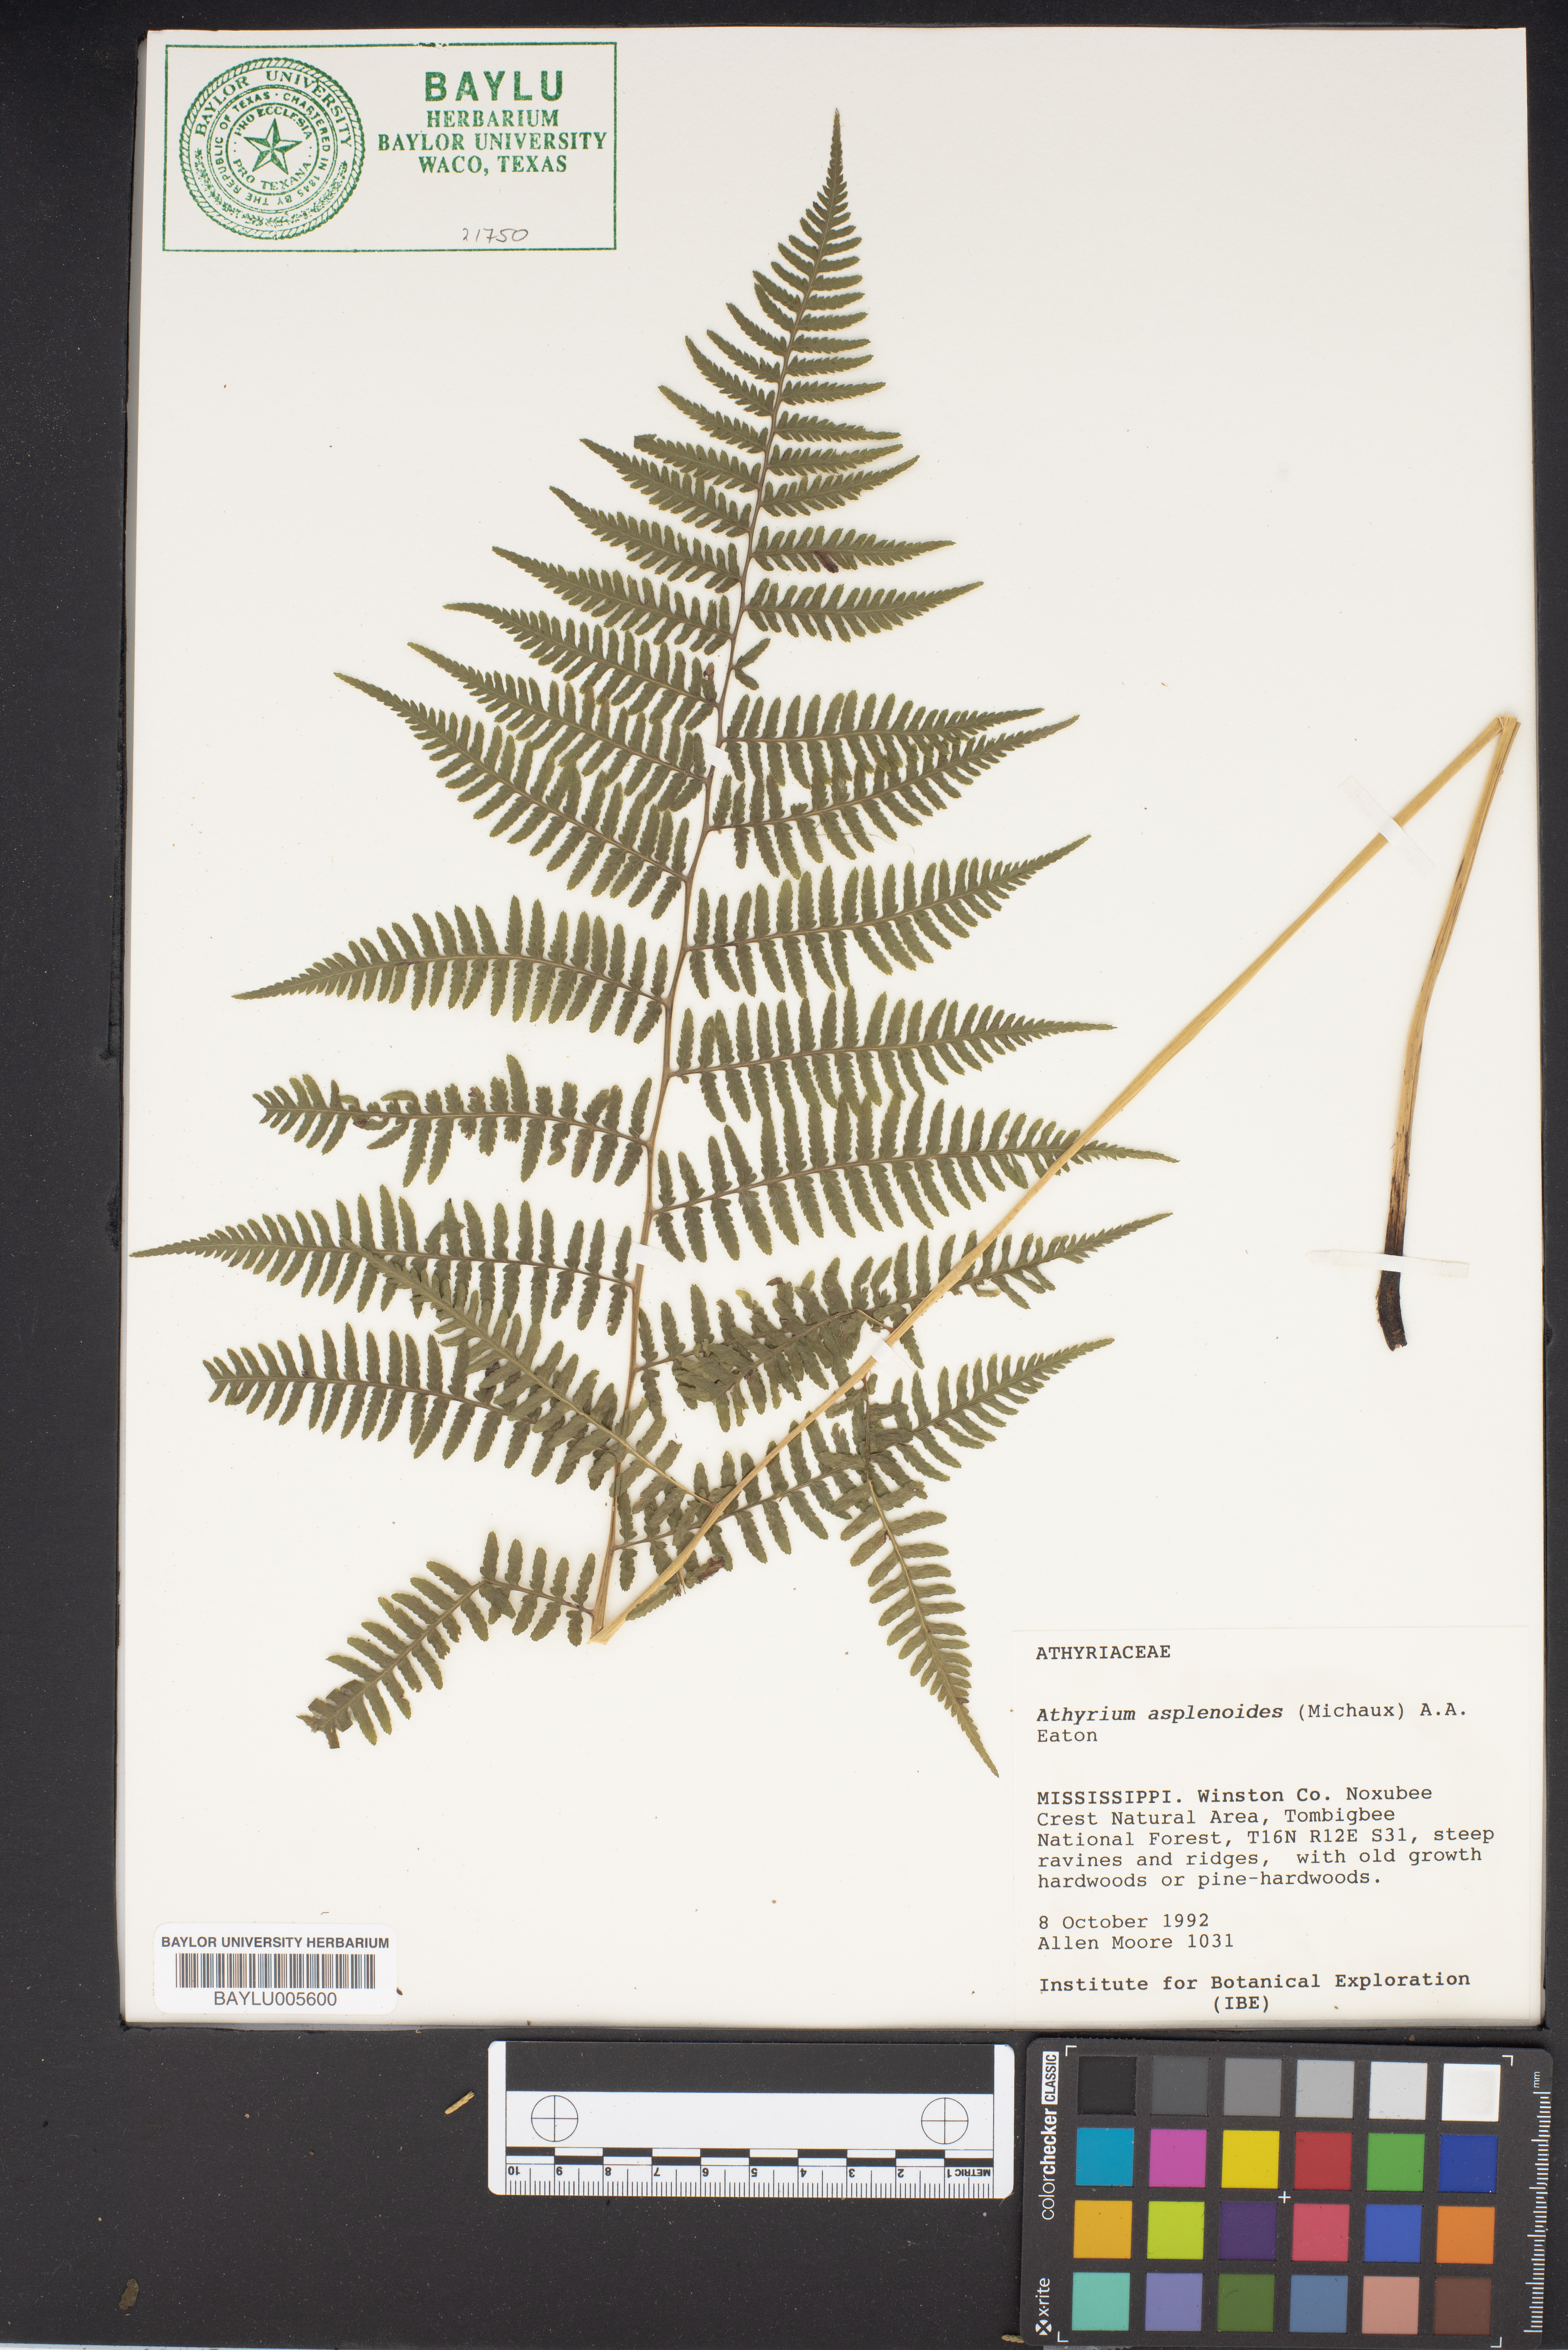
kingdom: Plantae
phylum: Tracheophyta
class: Polypodiopsida
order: Polypodiales
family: Athyriaceae
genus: Athyrium
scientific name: Athyrium asplenioides
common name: Southern lady fern
